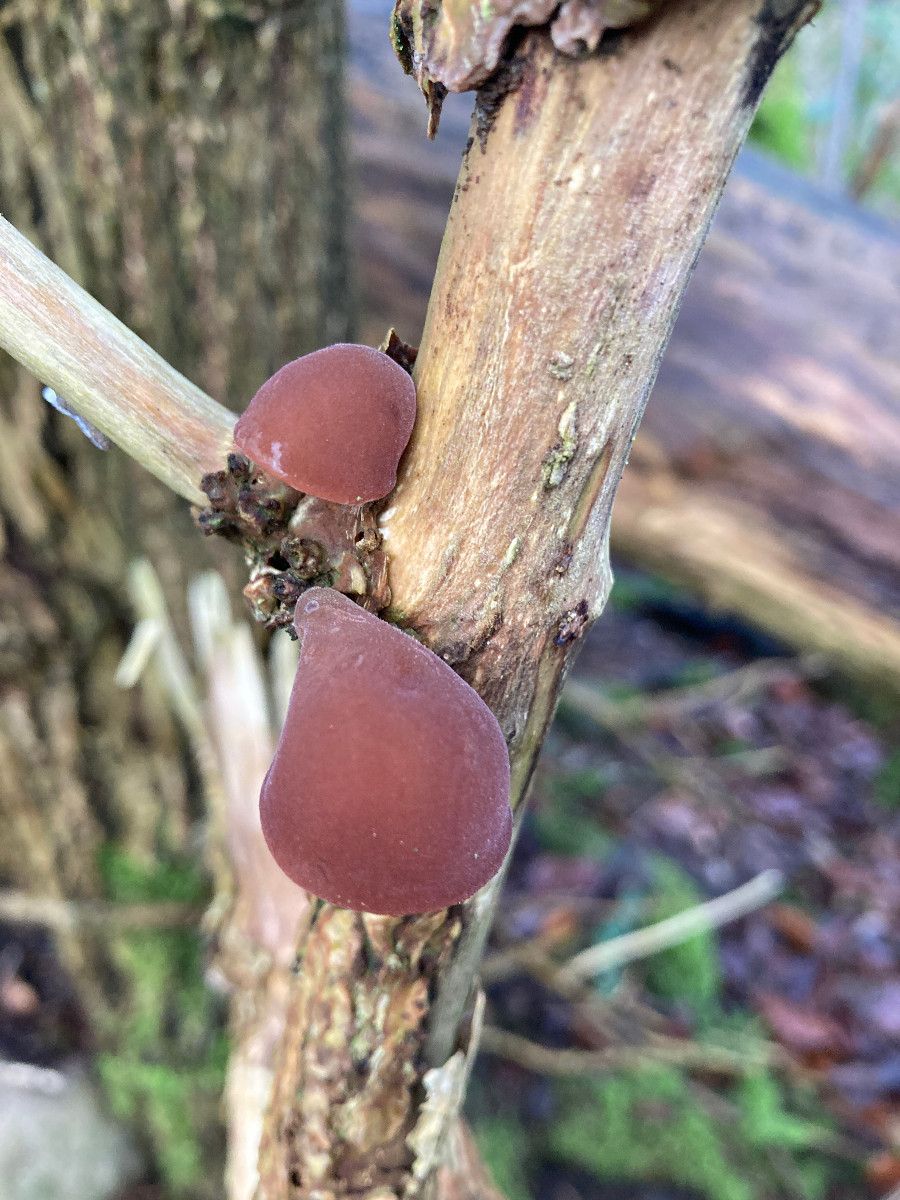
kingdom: Fungi
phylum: Basidiomycota
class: Agaricomycetes
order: Auriculariales
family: Auriculariaceae
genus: Auricularia
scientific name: Auricularia auricula-judae
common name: almindelig judasøre
